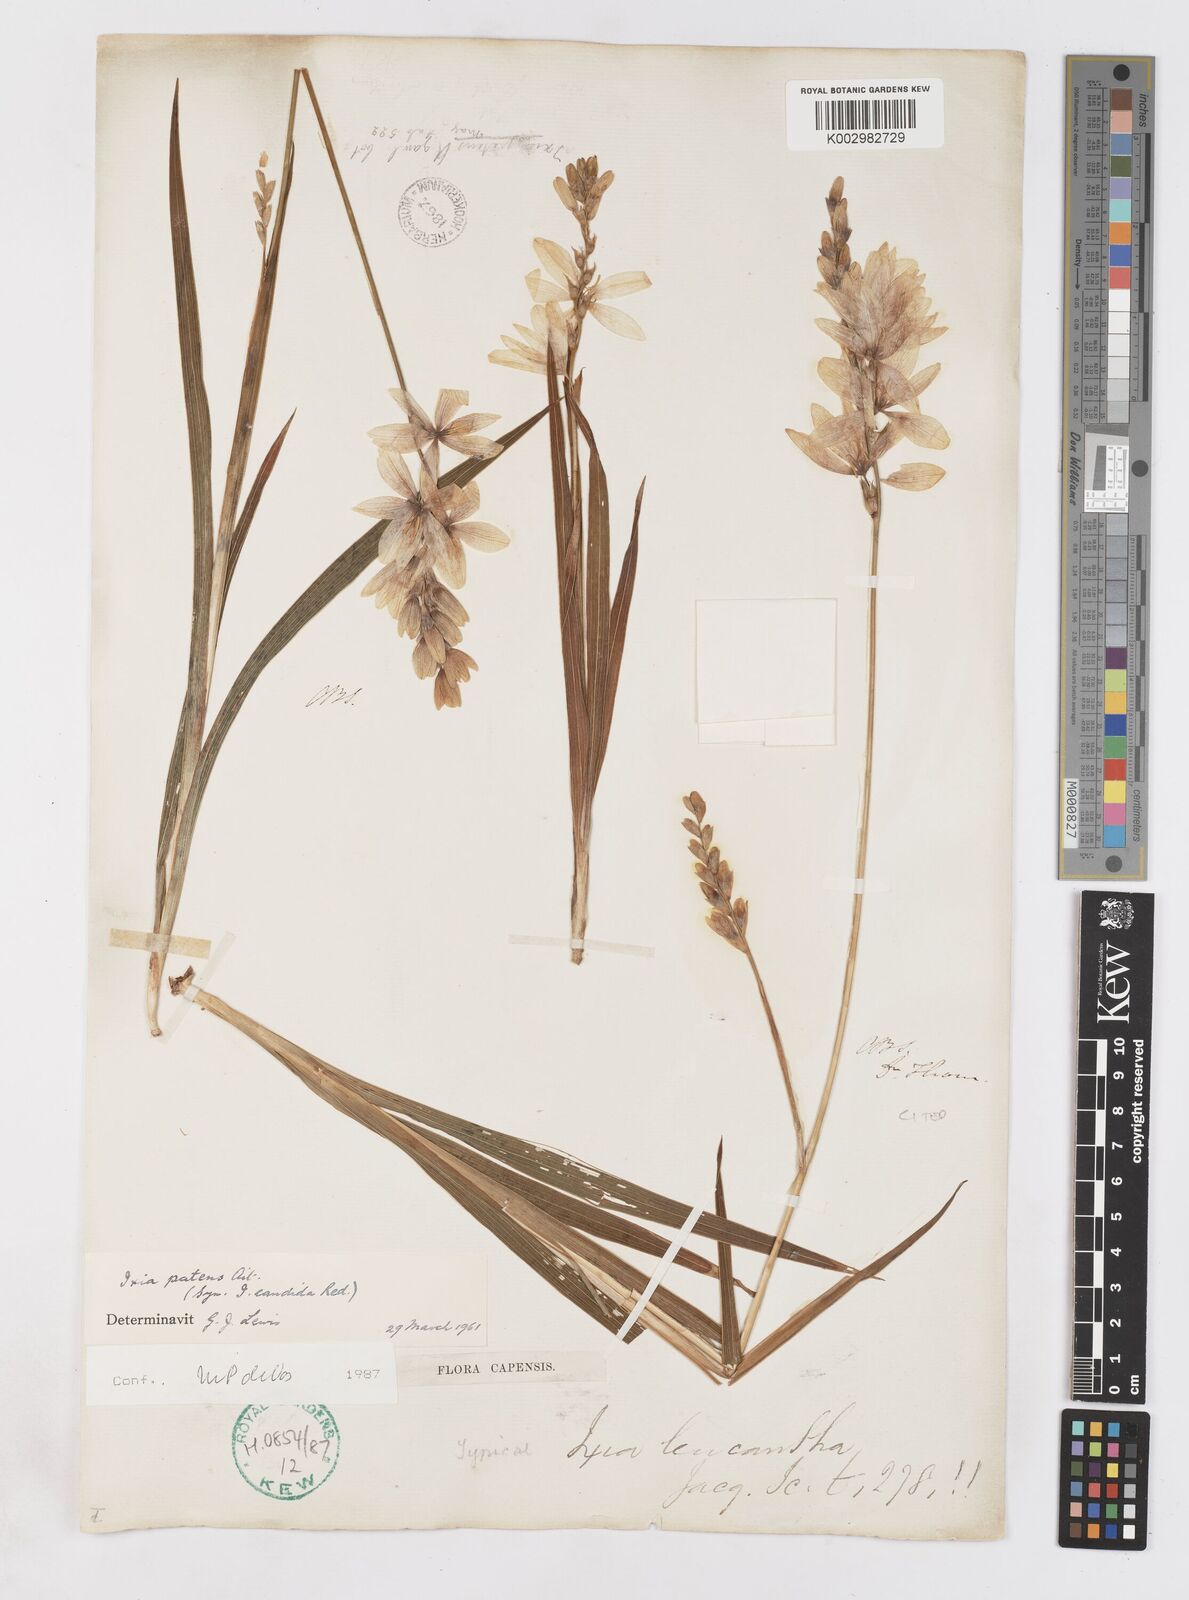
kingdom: Plantae
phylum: Tracheophyta
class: Liliopsida
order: Asparagales
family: Iridaceae
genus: Ixia
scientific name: Ixia patens
